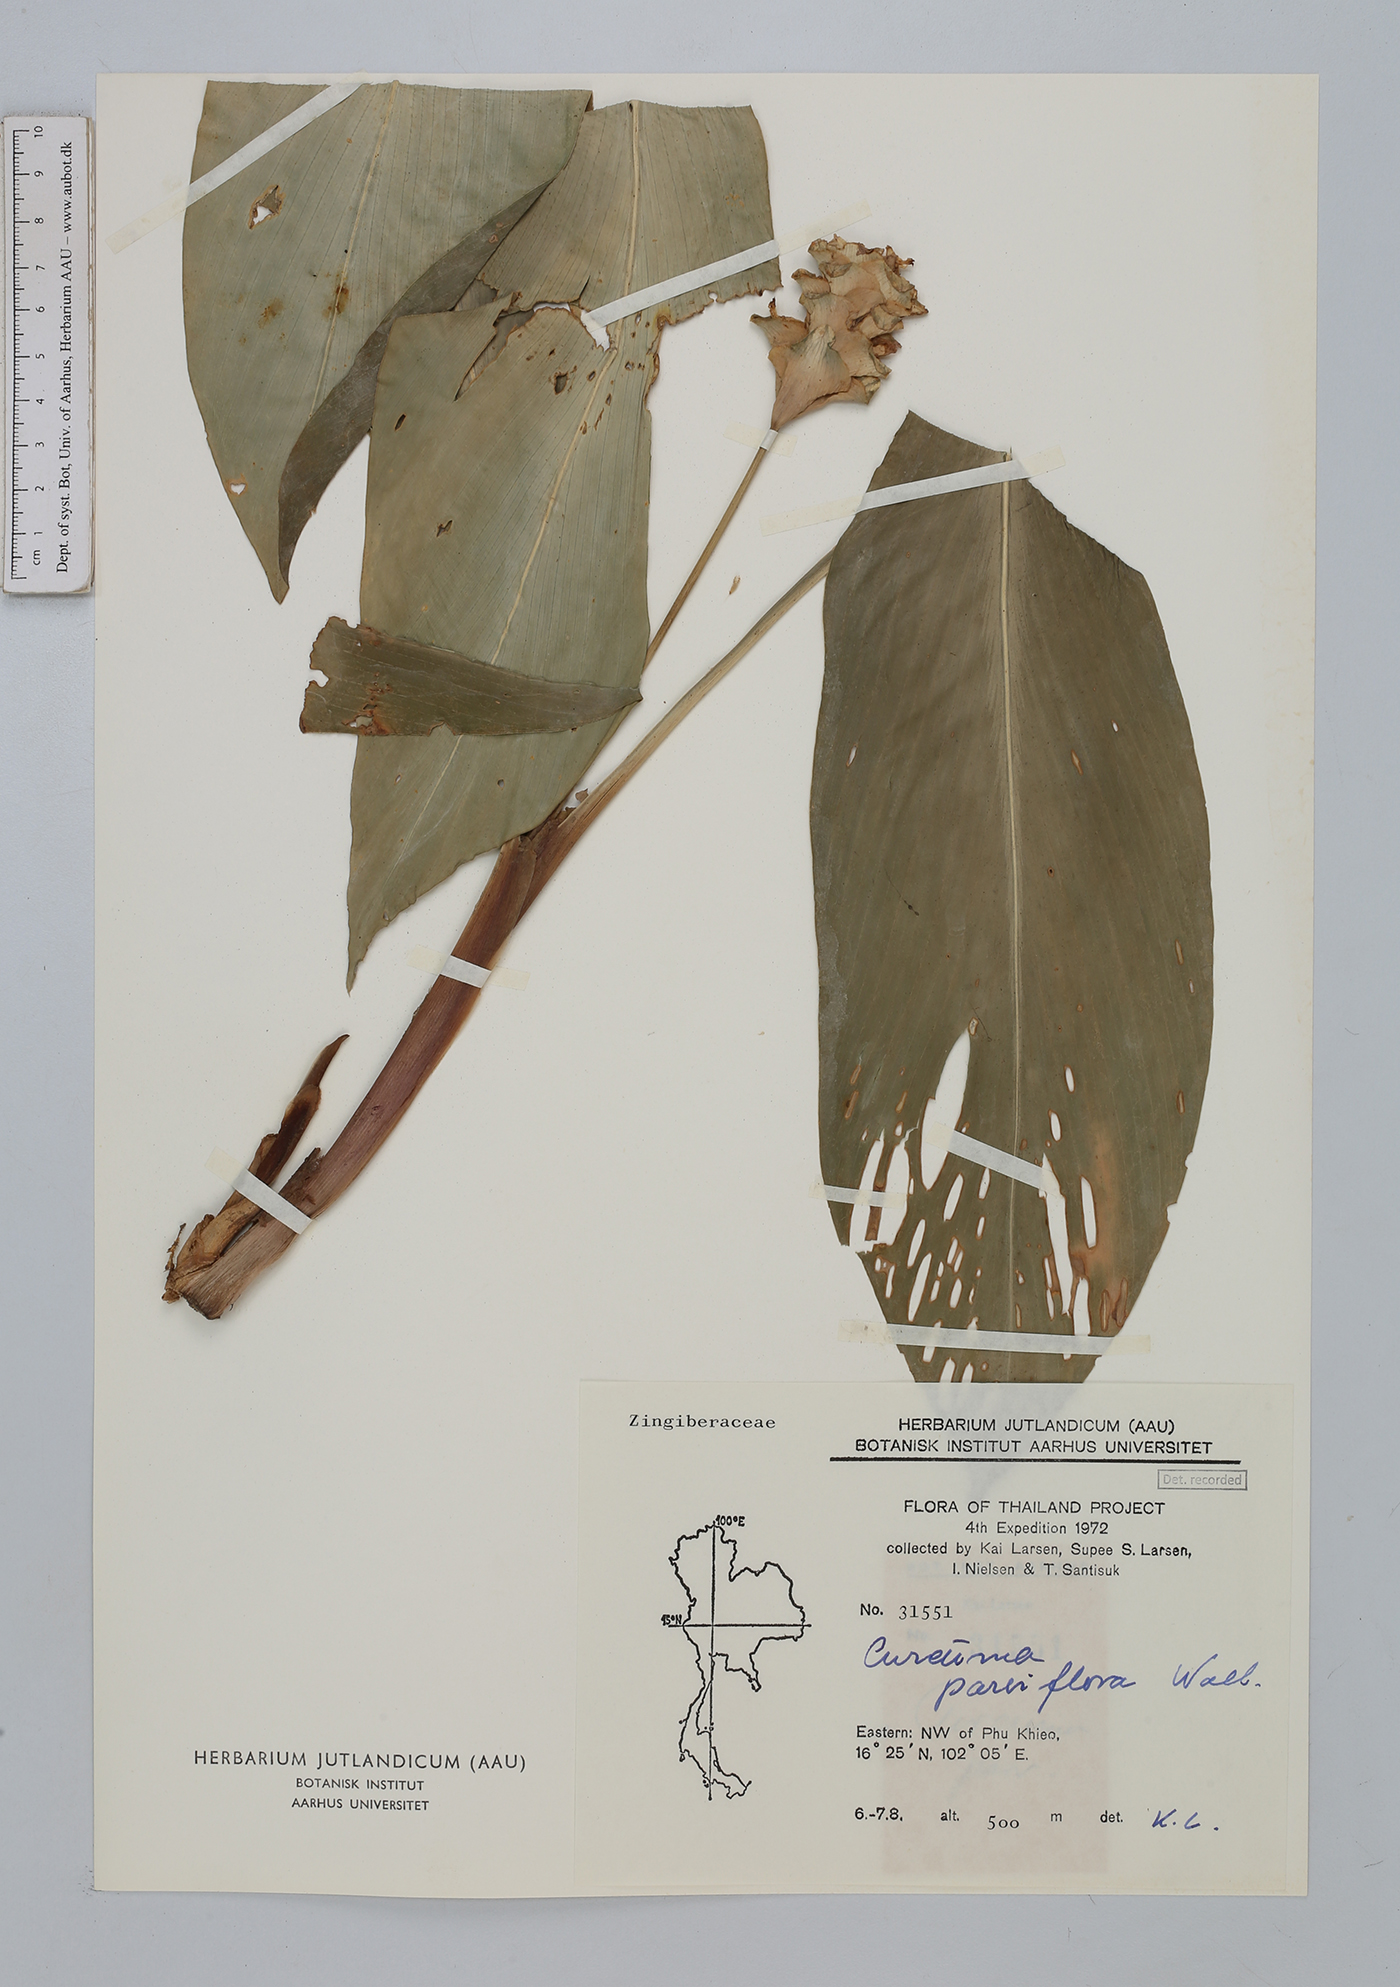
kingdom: Plantae
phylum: Tracheophyta
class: Liliopsida
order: Zingiberales
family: Zingiberaceae
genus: Curcuma
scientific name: Curcuma parviflora
